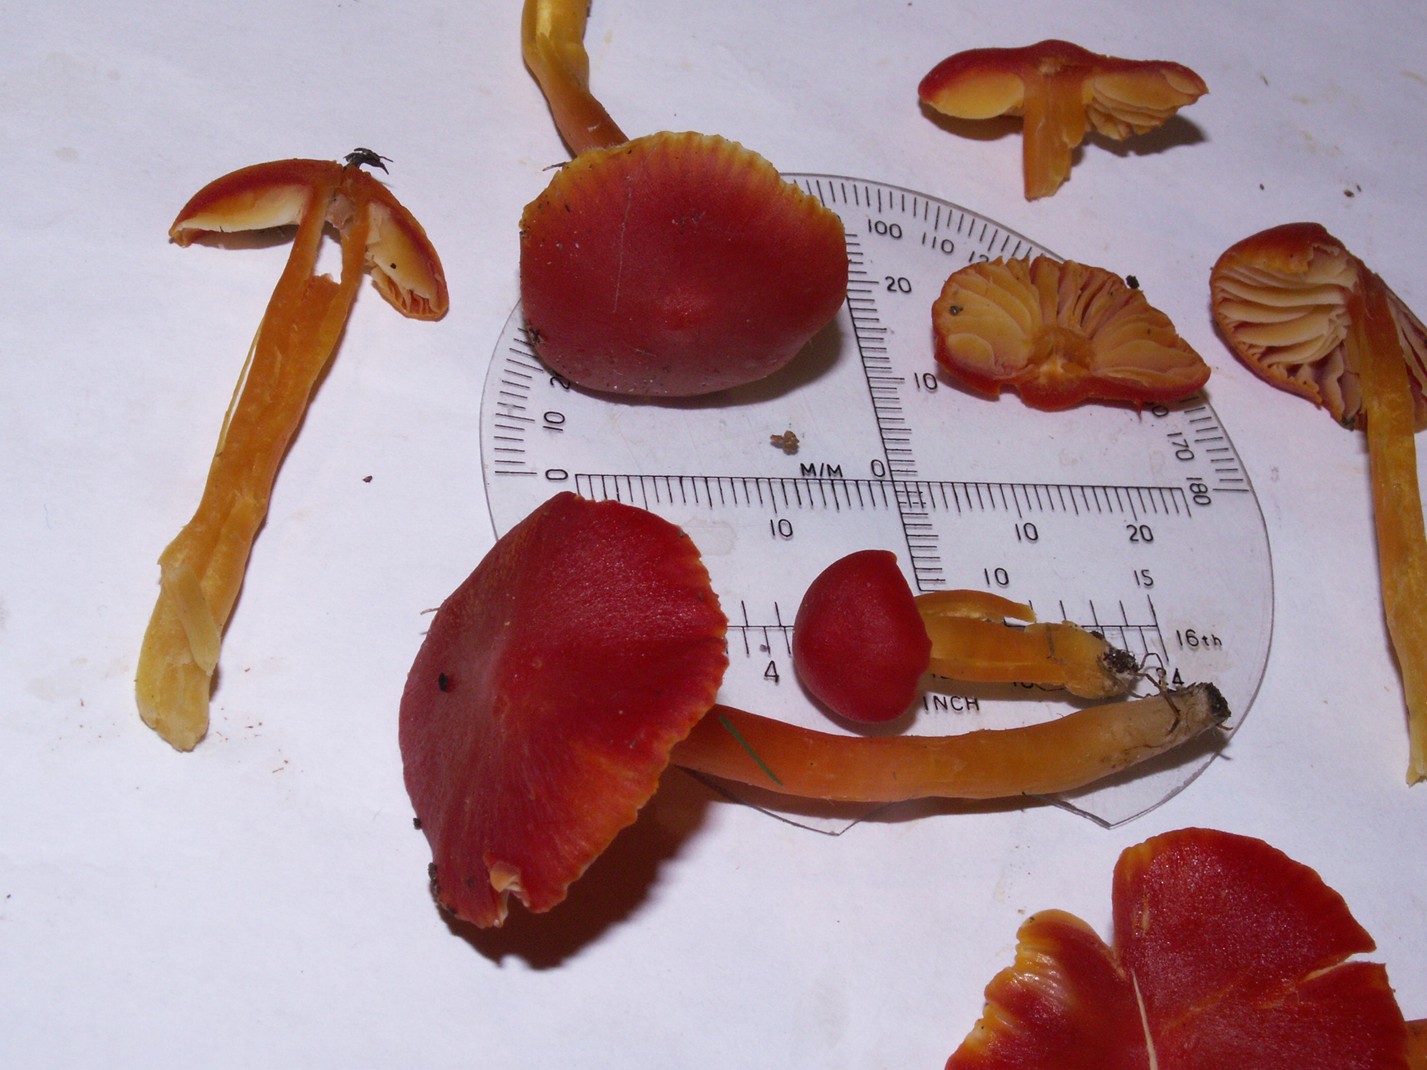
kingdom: Fungi
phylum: Basidiomycota
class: Agaricomycetes
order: Agaricales
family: Hygrophoraceae
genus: Hygrocybe
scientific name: Hygrocybe coccinea
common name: cinnober-vokshat
